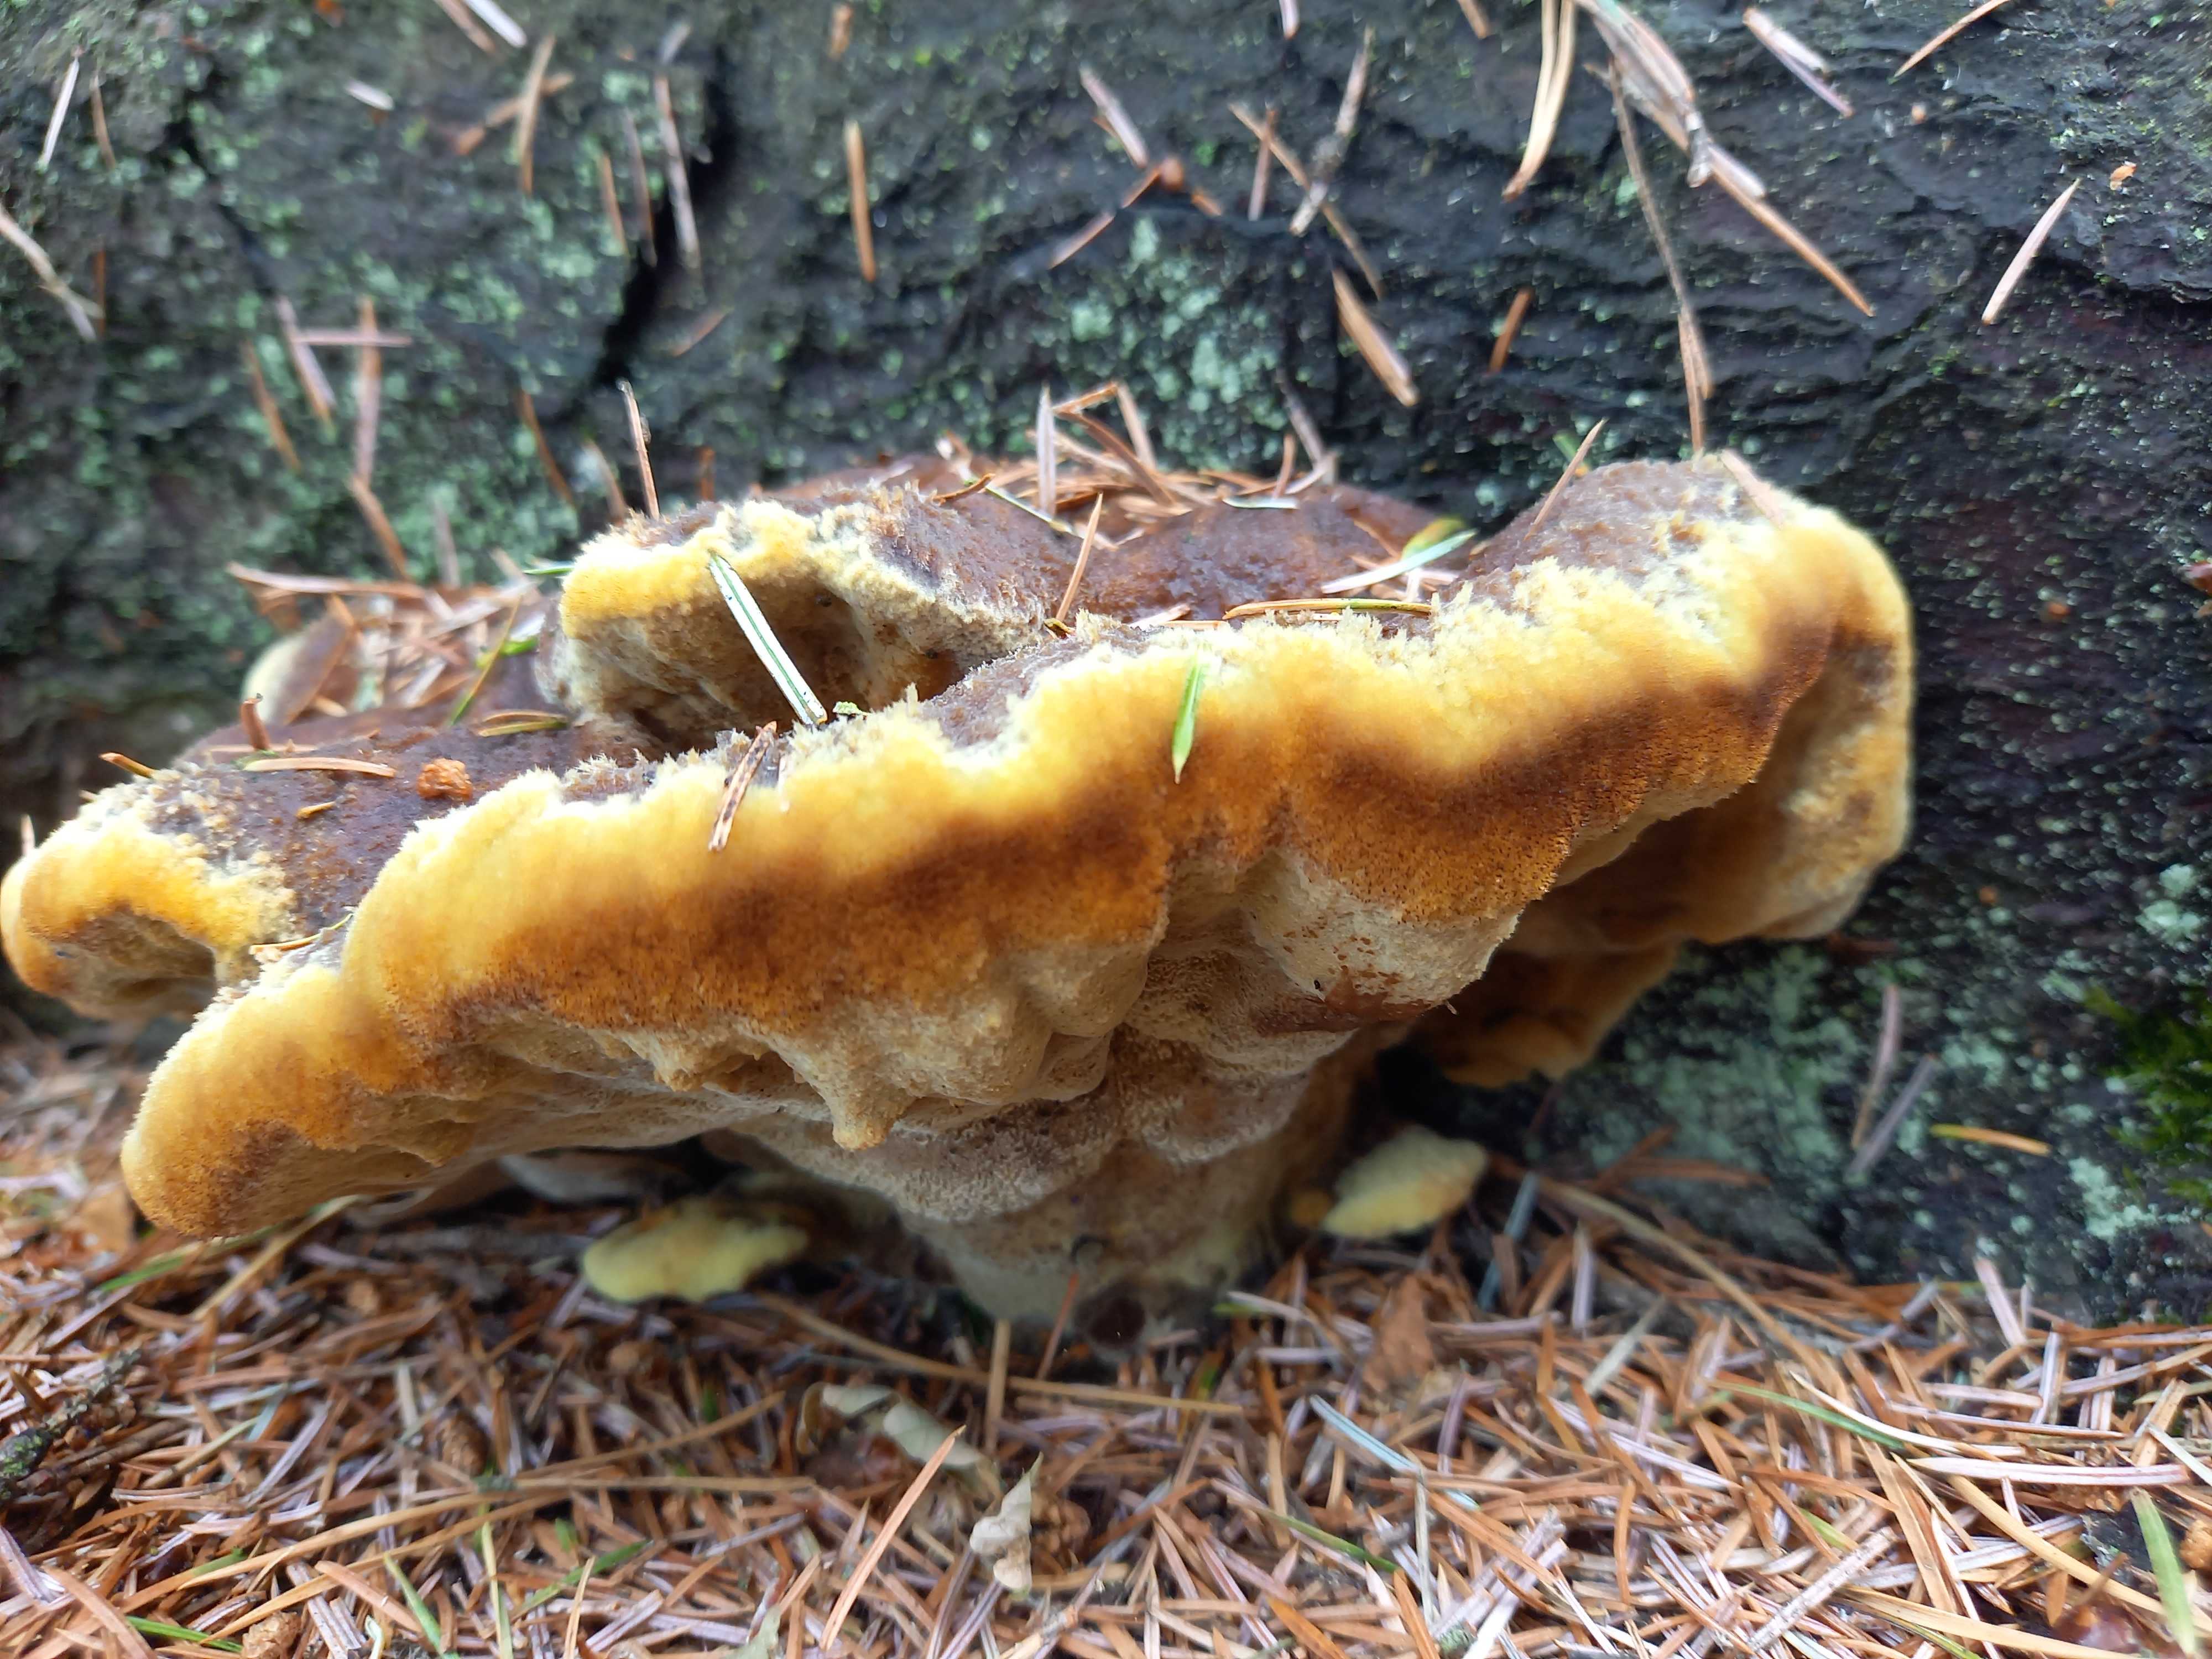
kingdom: Fungi
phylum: Basidiomycota
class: Agaricomycetes
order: Polyporales
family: Laetiporaceae
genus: Phaeolus
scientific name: Phaeolus schweinitzii
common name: brunporesvamp
